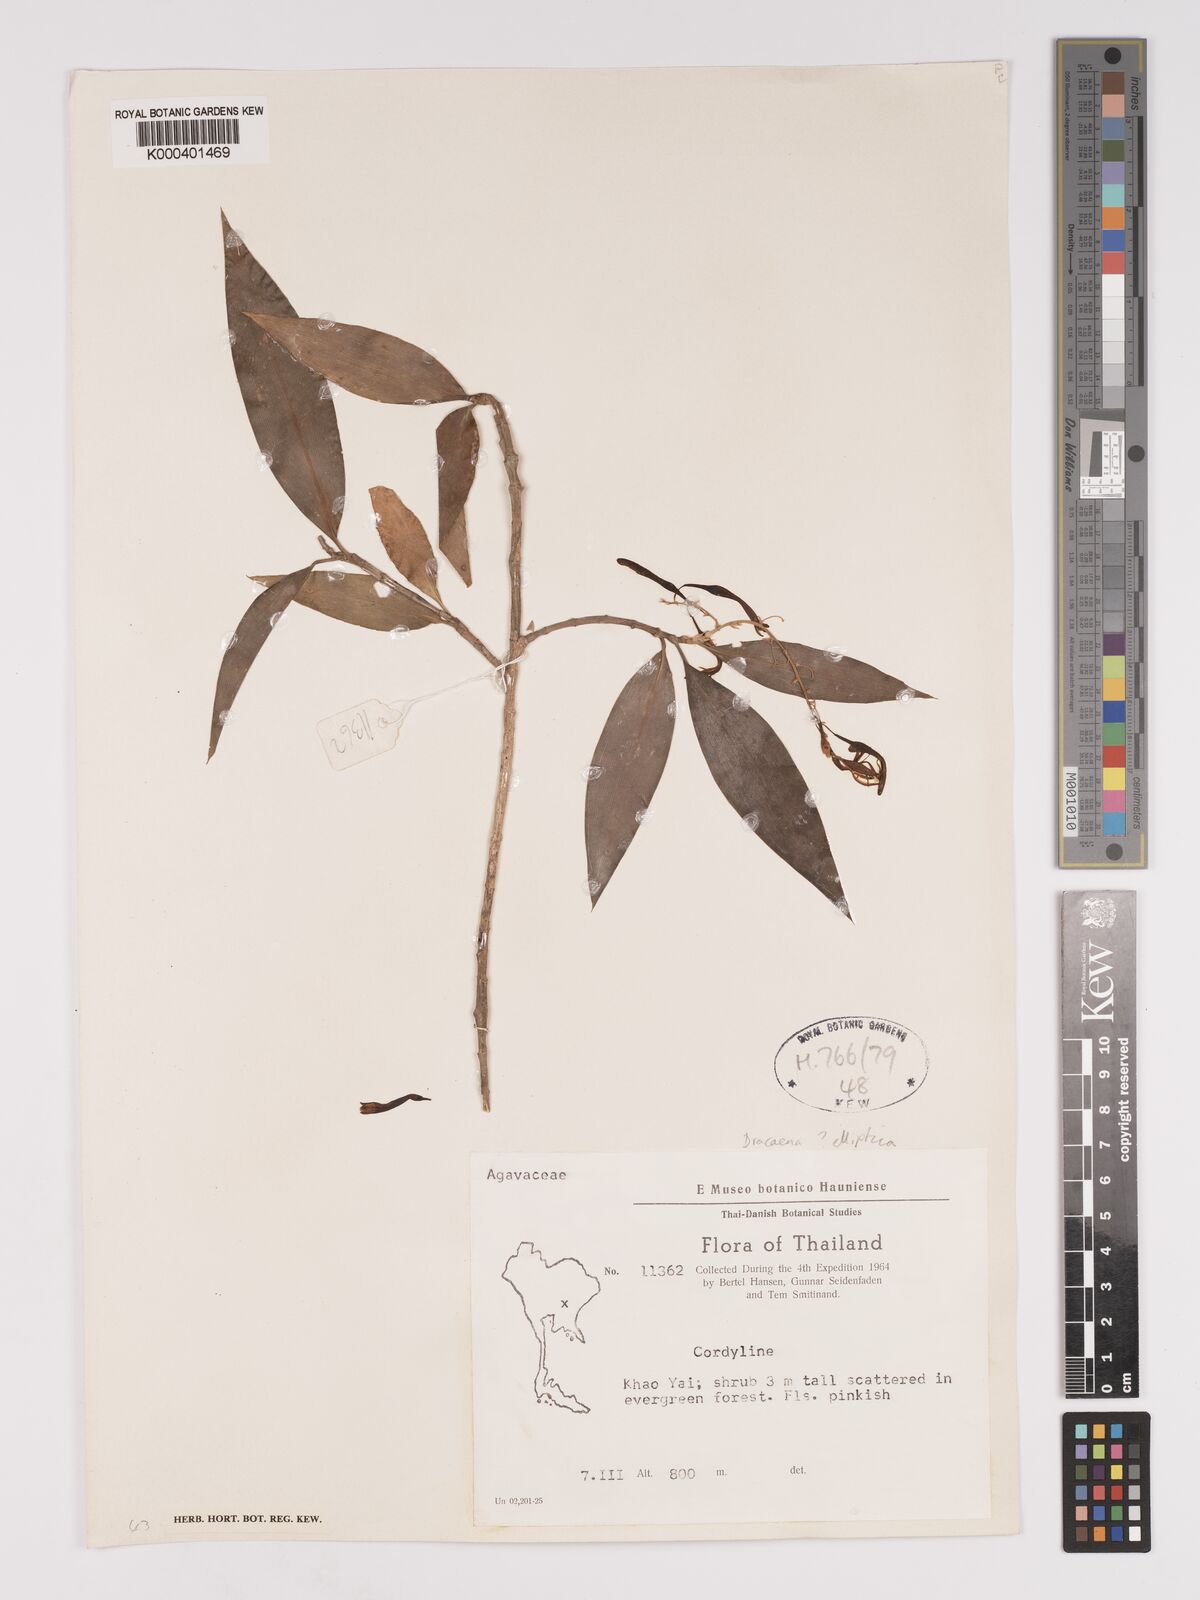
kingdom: Plantae
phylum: Tracheophyta
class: Liliopsida
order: Asparagales
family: Asparagaceae
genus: Dracaena
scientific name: Dracaena elliptica
